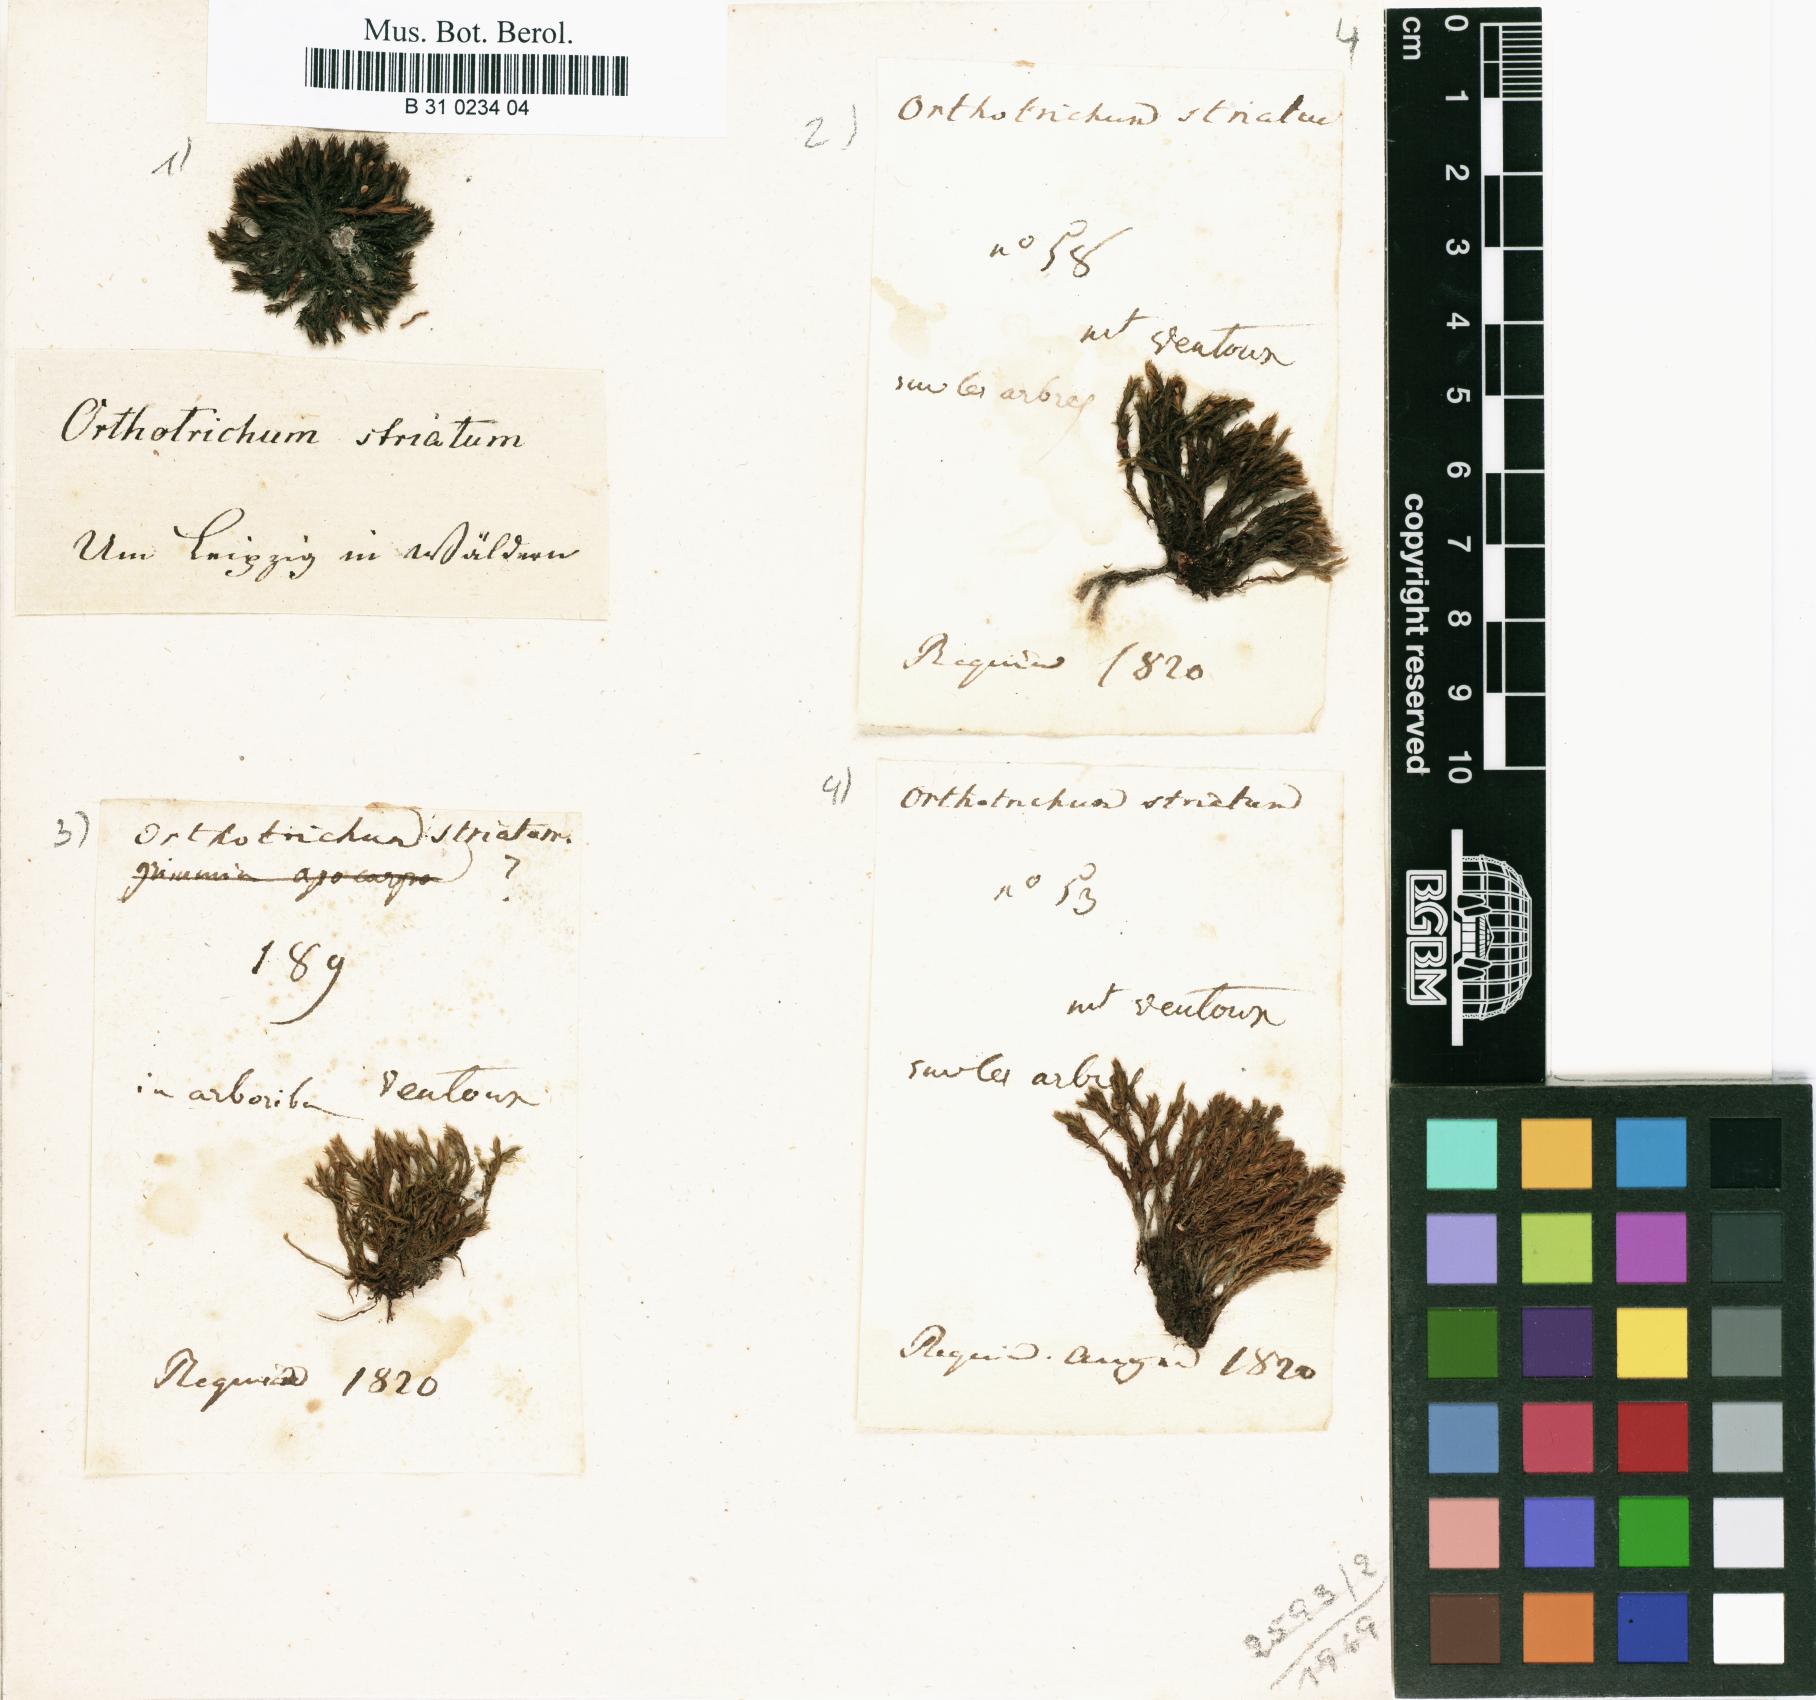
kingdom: Plantae
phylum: Bryophyta
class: Bryopsida
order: Orthotrichales
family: Orthotrichaceae
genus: Lewinskya
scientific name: Lewinskya striata
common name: Shaw's bristle-moss
